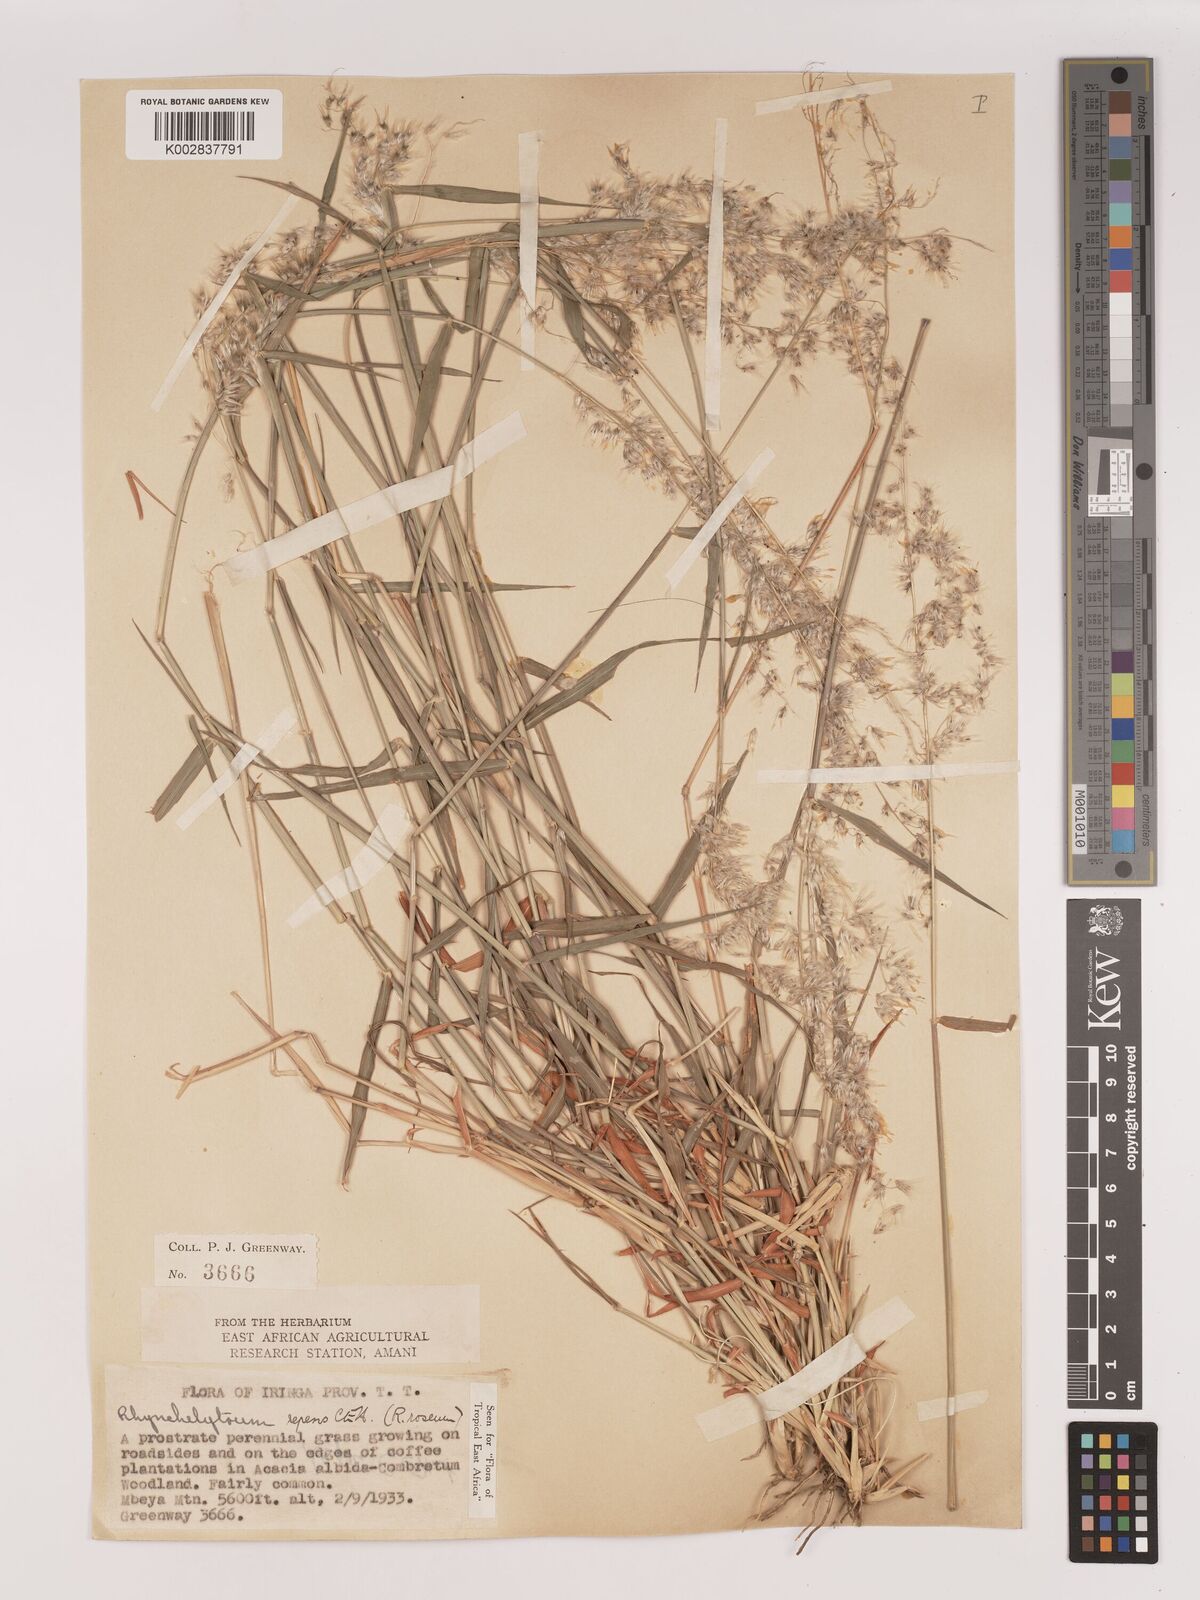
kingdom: Plantae
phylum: Tracheophyta
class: Liliopsida
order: Poales
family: Poaceae
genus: Melinis
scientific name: Melinis repens
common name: Rose natal grass
